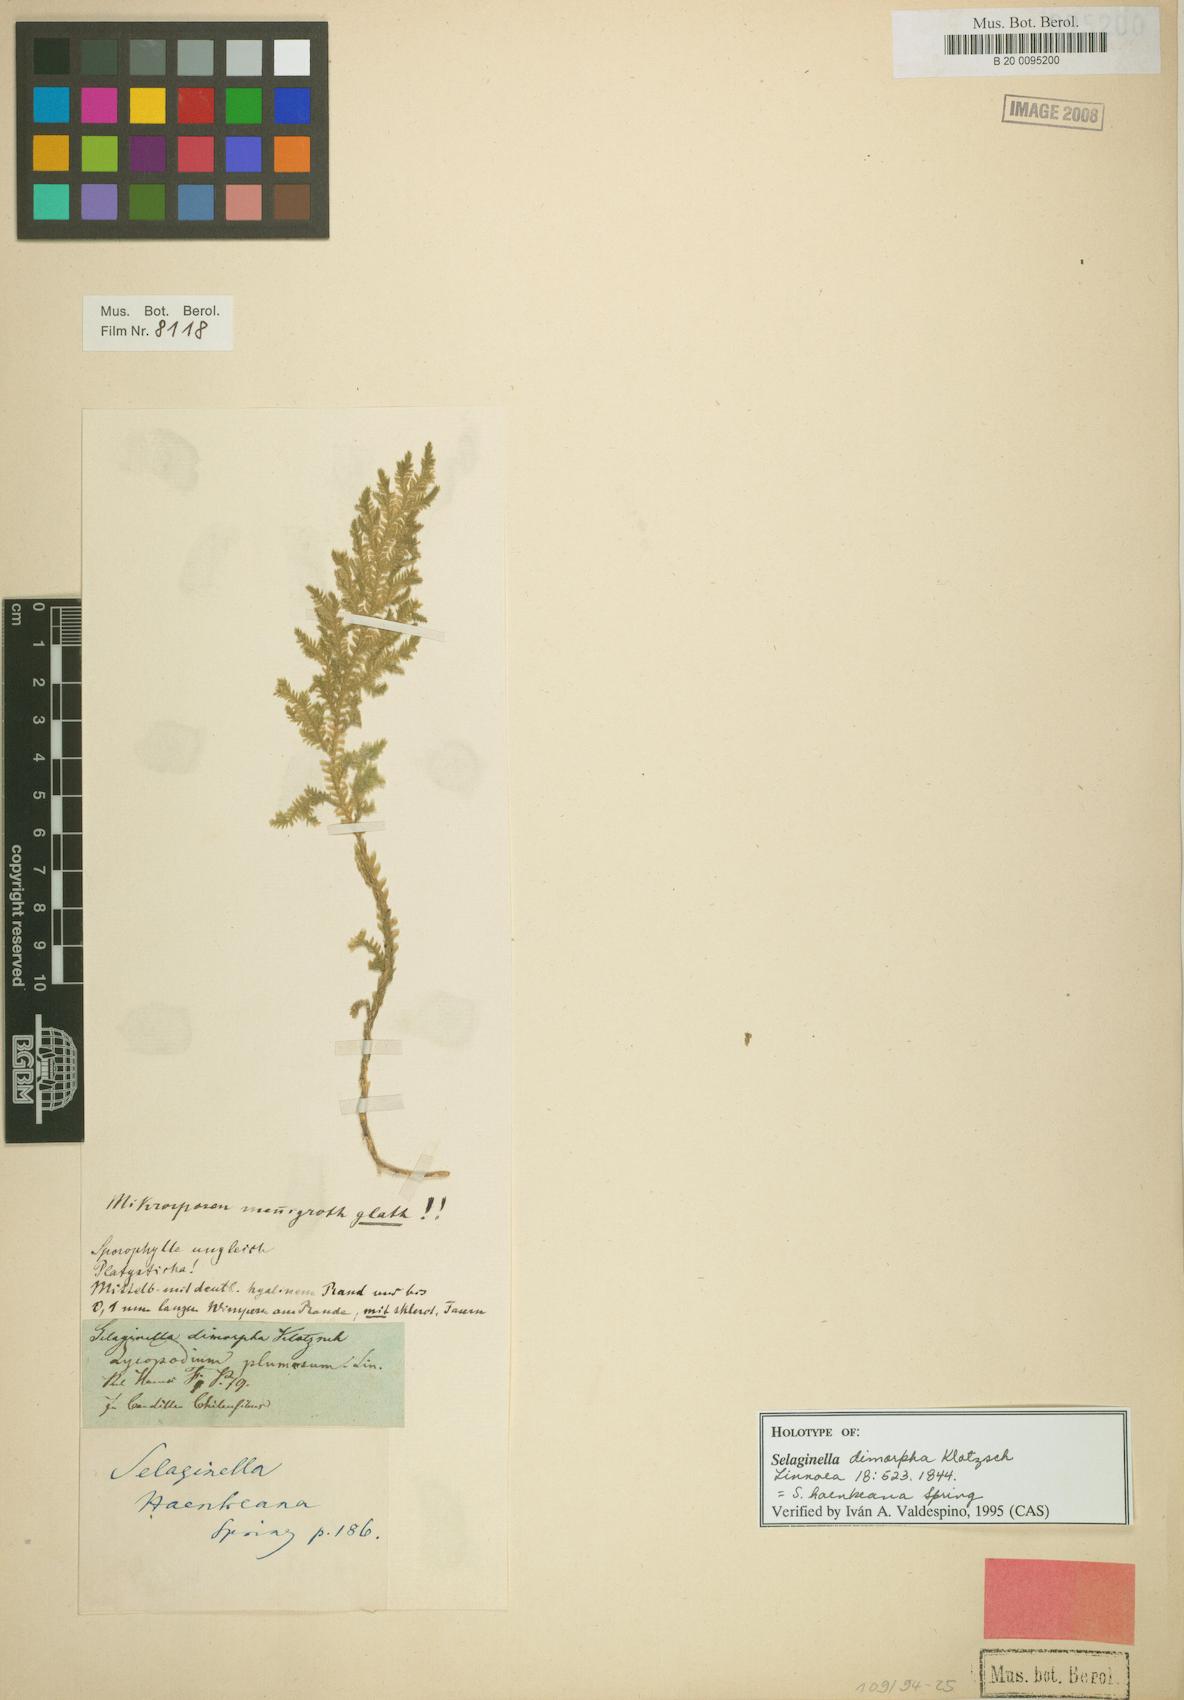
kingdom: Plantae
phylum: Tracheophyta
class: Lycopodiopsida
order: Selaginellales
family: Selaginellaceae
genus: Selaginella
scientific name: Selaginella haenkeana
